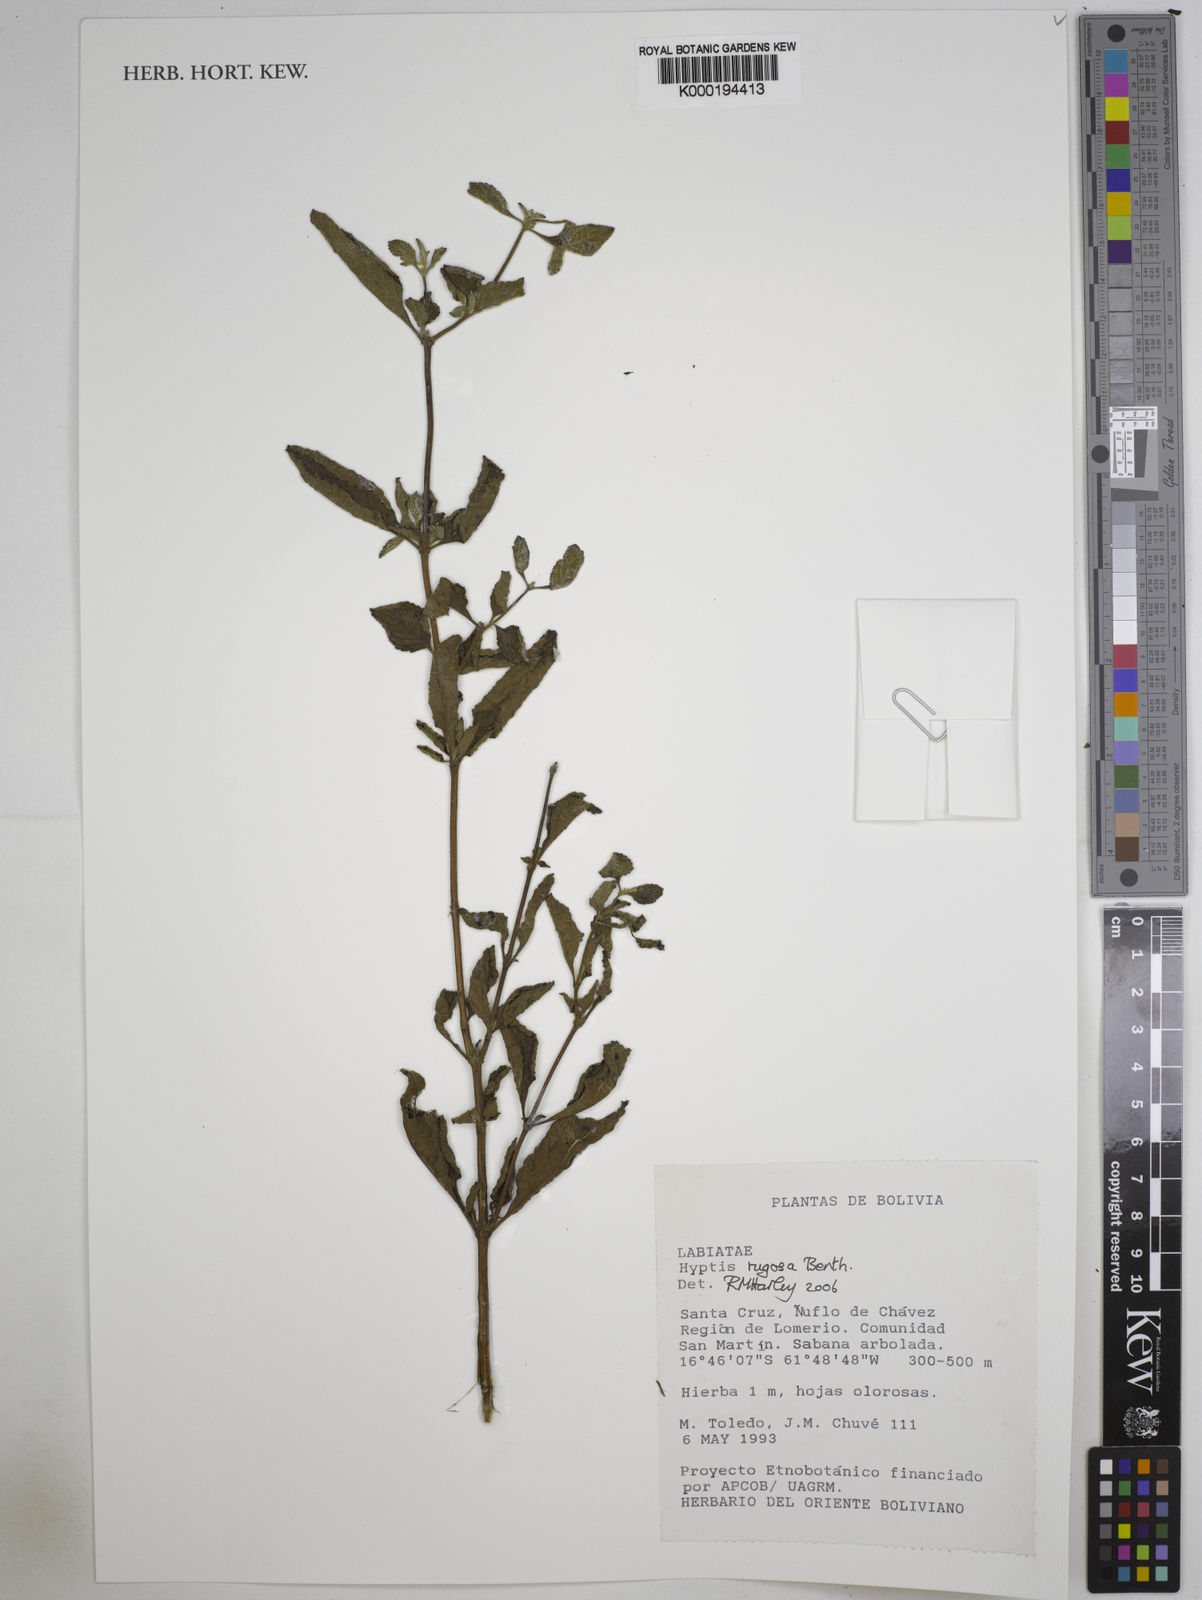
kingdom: Plantae
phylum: Tracheophyta
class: Magnoliopsida
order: Lamiales
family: Lamiaceae
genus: Cyanocephalus
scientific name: Cyanocephalus rugosus
